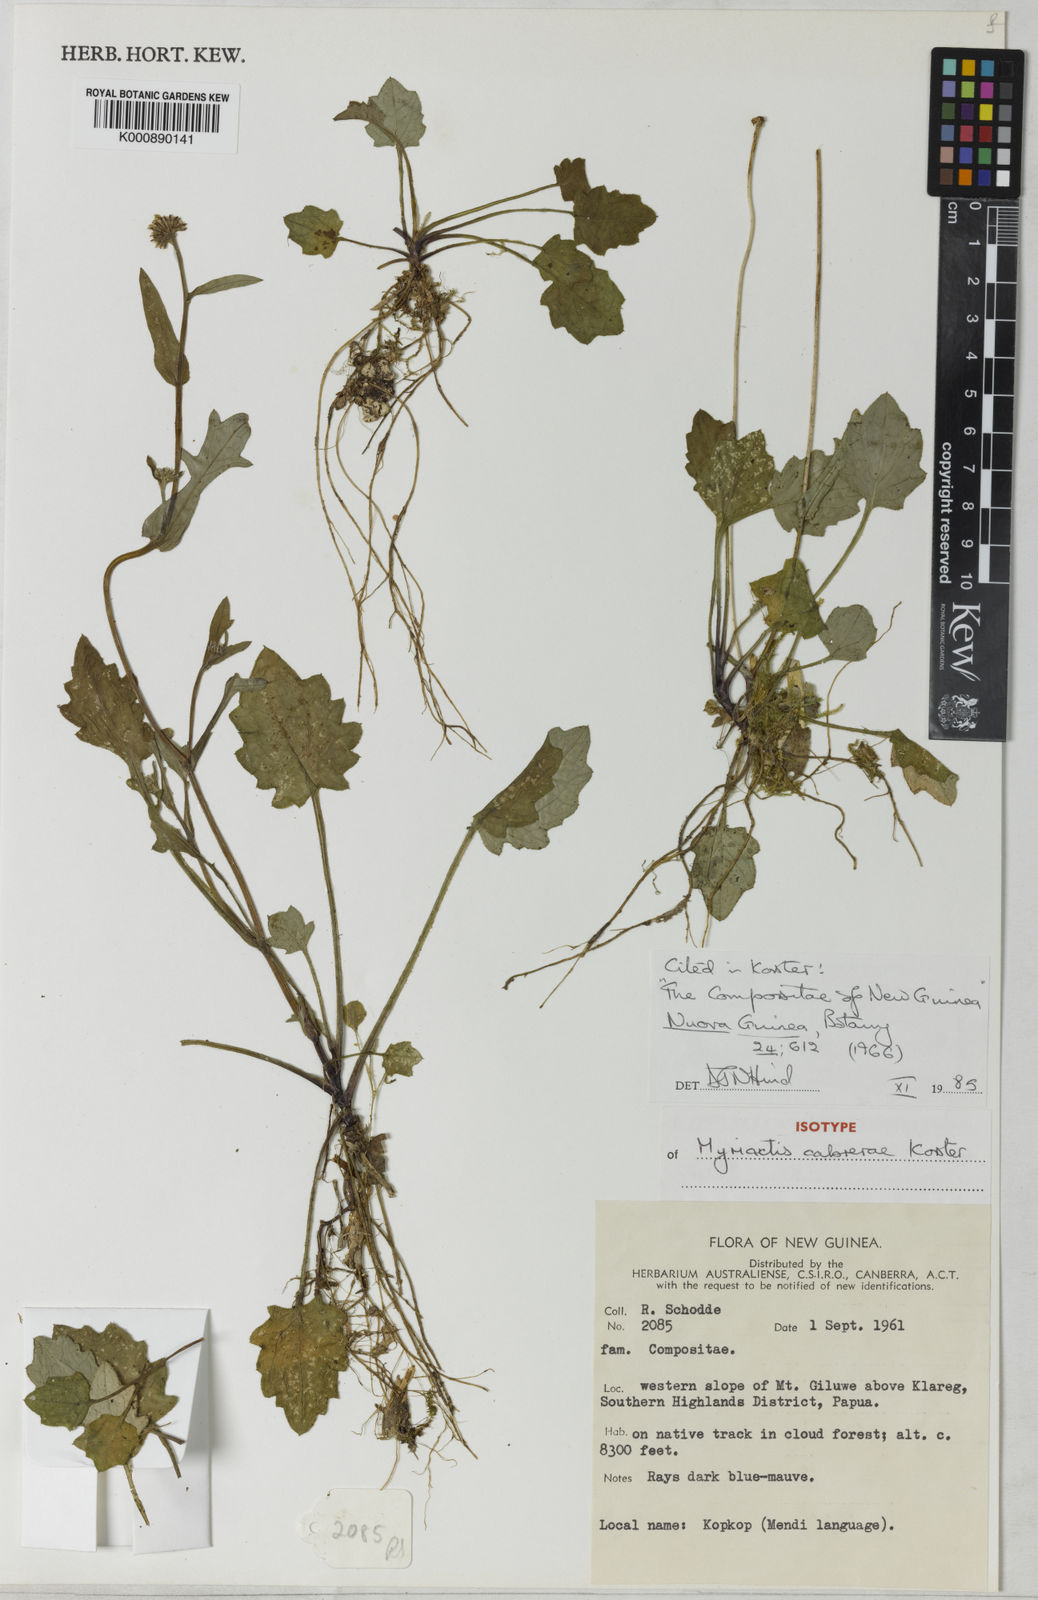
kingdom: Plantae
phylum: Tracheophyta
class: Magnoliopsida
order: Asterales
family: Asteraceae
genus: Myriactis
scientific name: Myriactis cabrerae
